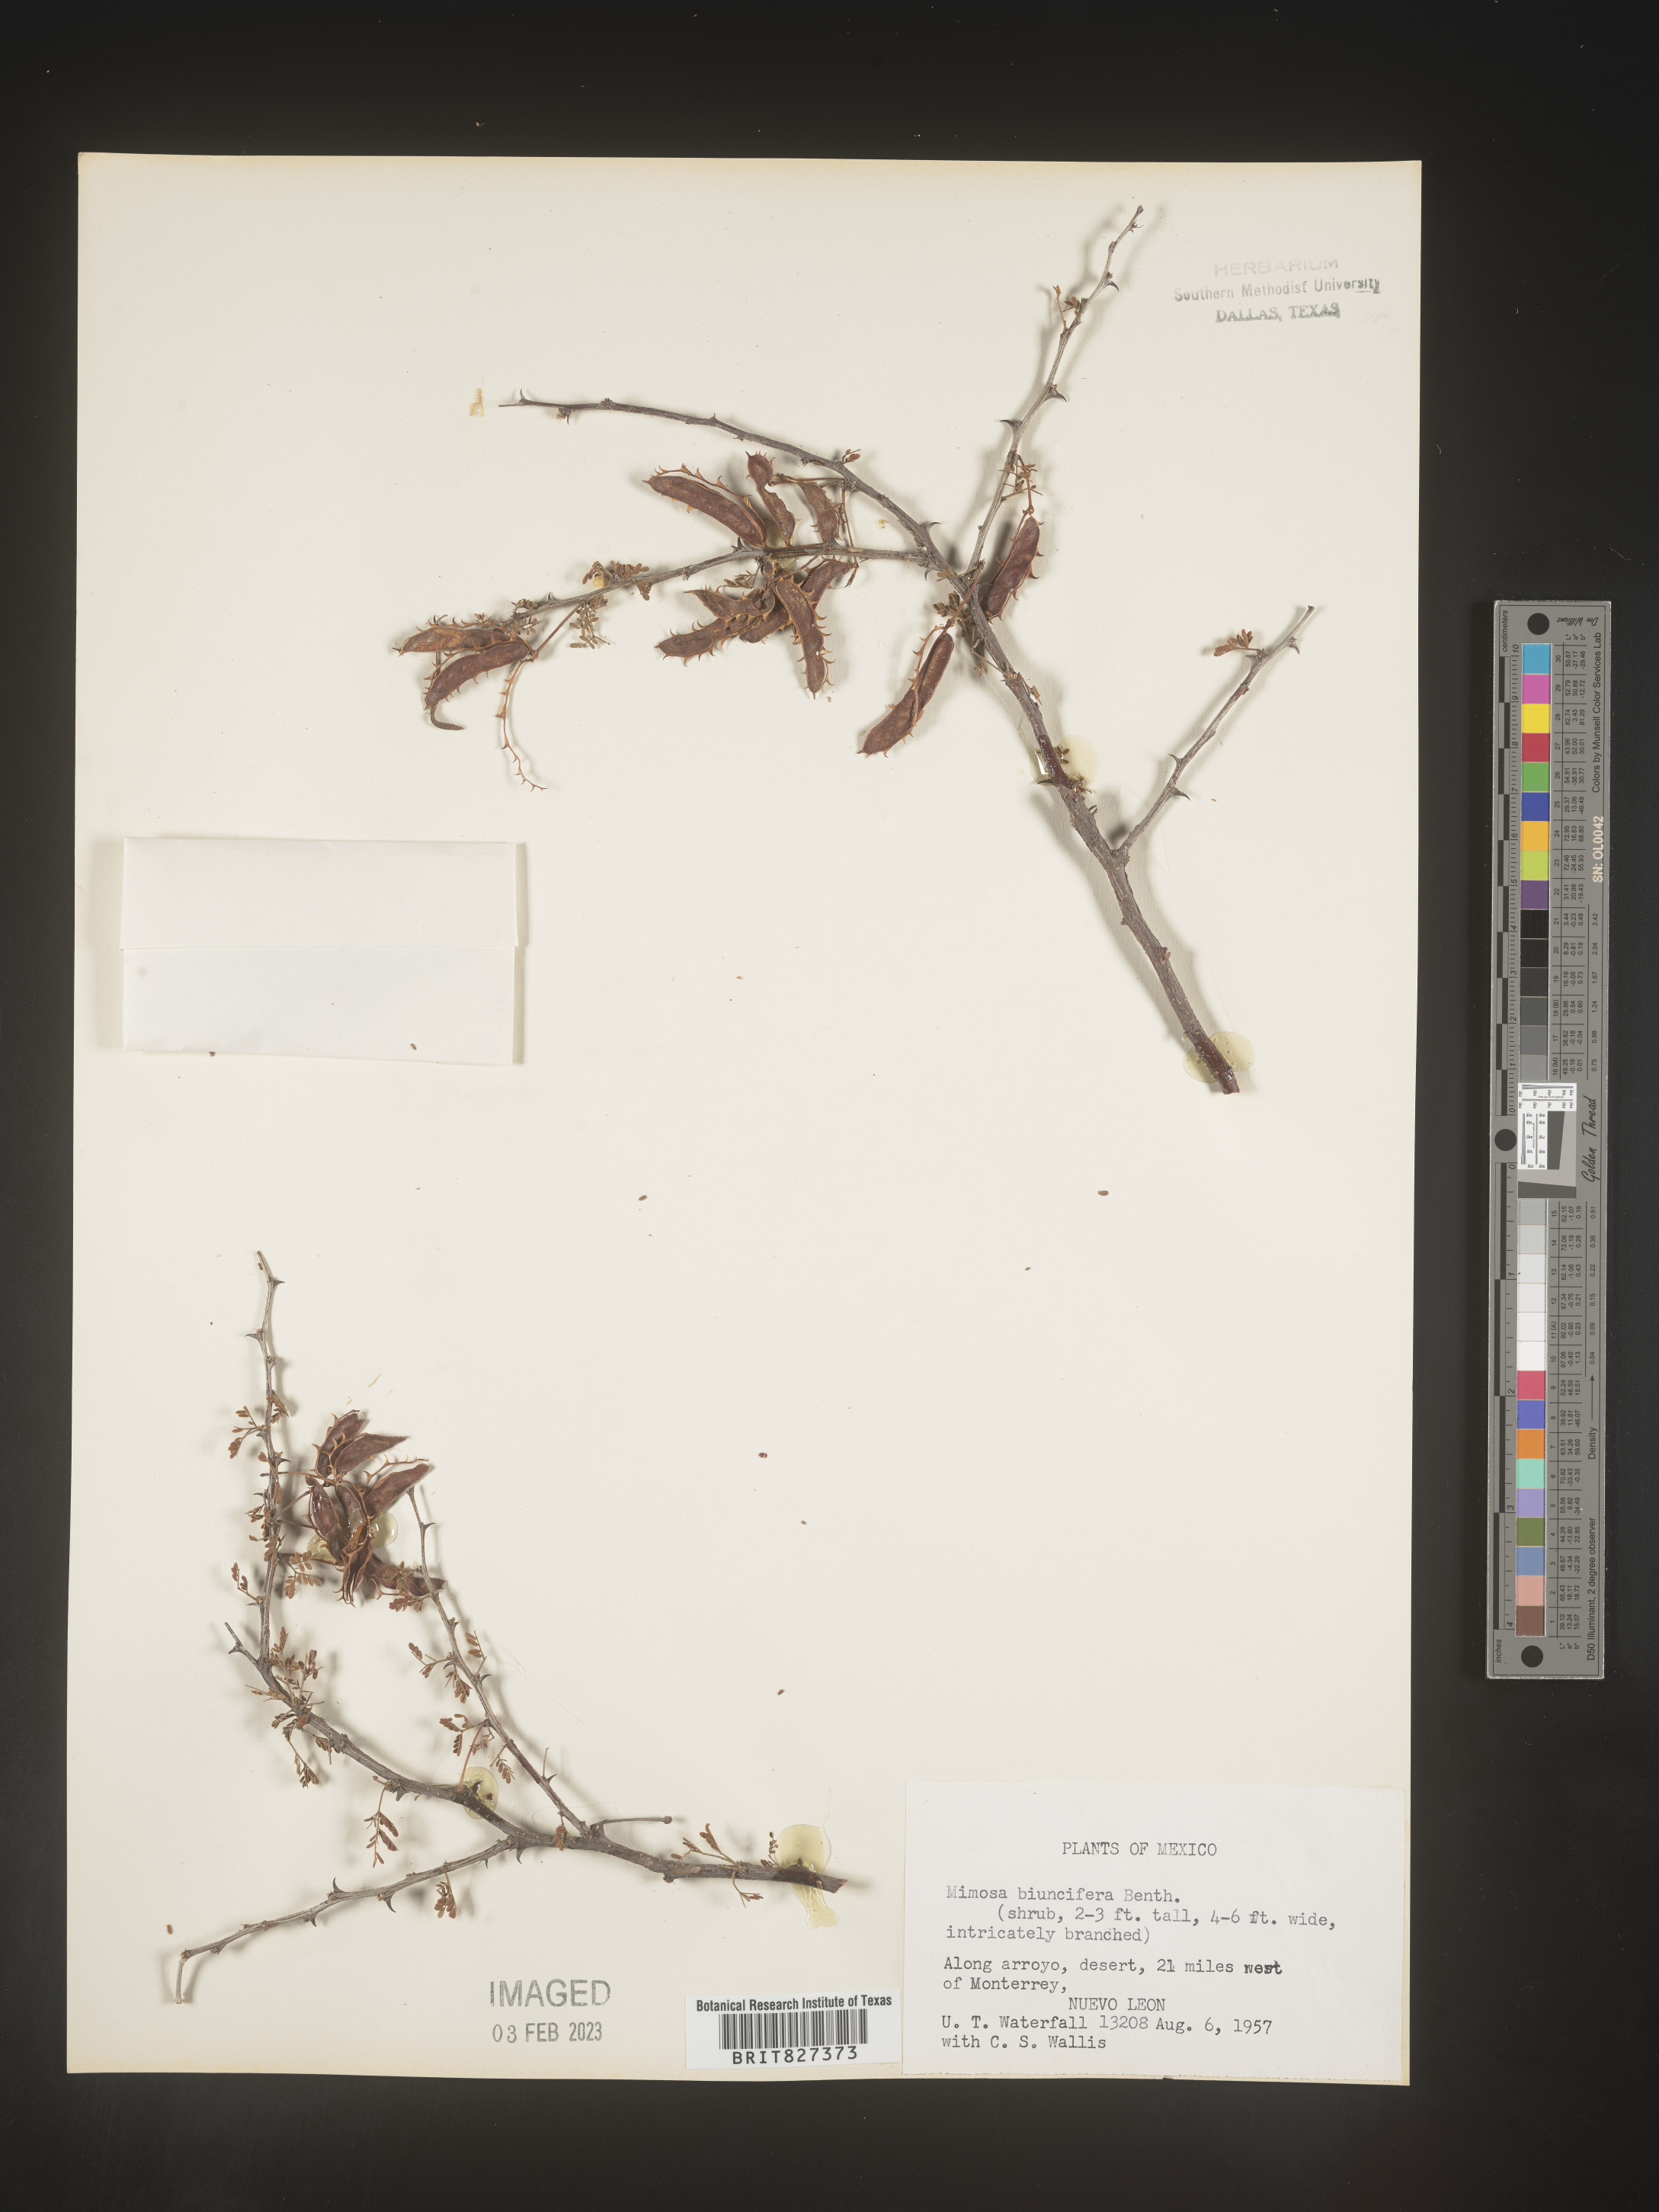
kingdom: Plantae
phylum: Tracheophyta
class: Magnoliopsida
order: Fabales
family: Fabaceae
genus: Mimosa
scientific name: Mimosa
